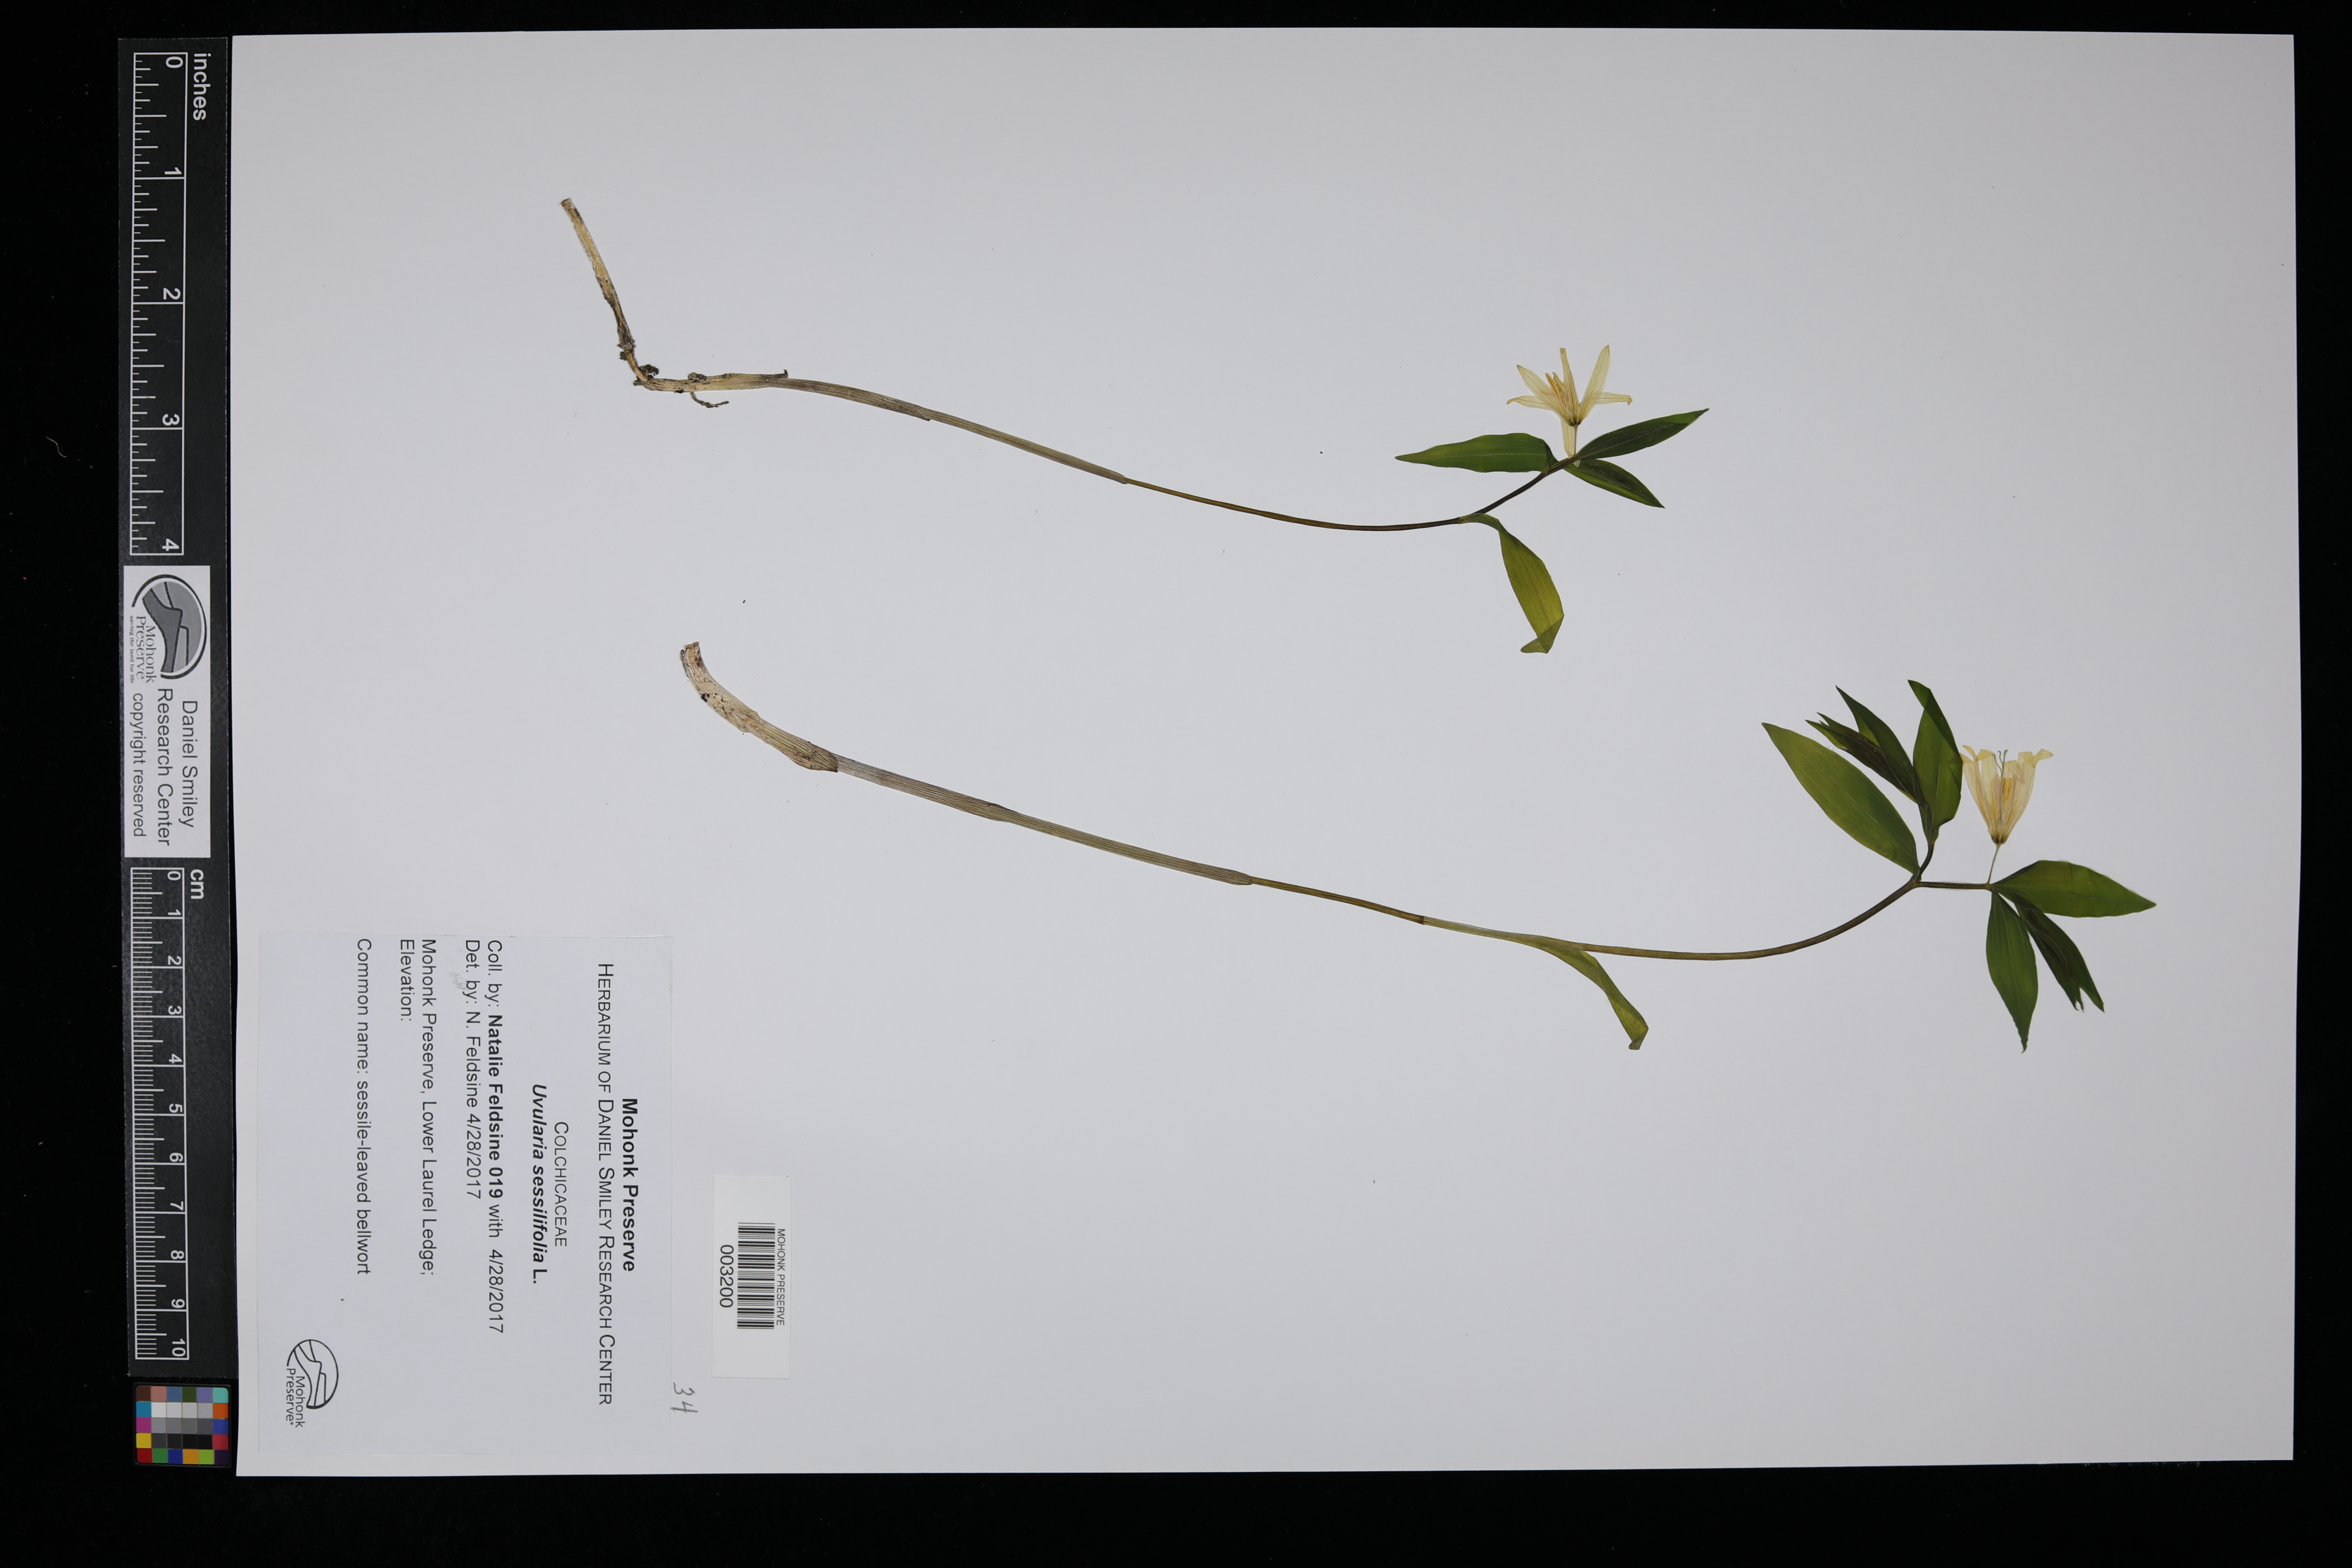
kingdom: Plantae
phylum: Tracheophyta
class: Liliopsida
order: Liliales
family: Colchicaceae
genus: Uvularia
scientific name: Uvularia sessilifolia
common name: Straw-lily
